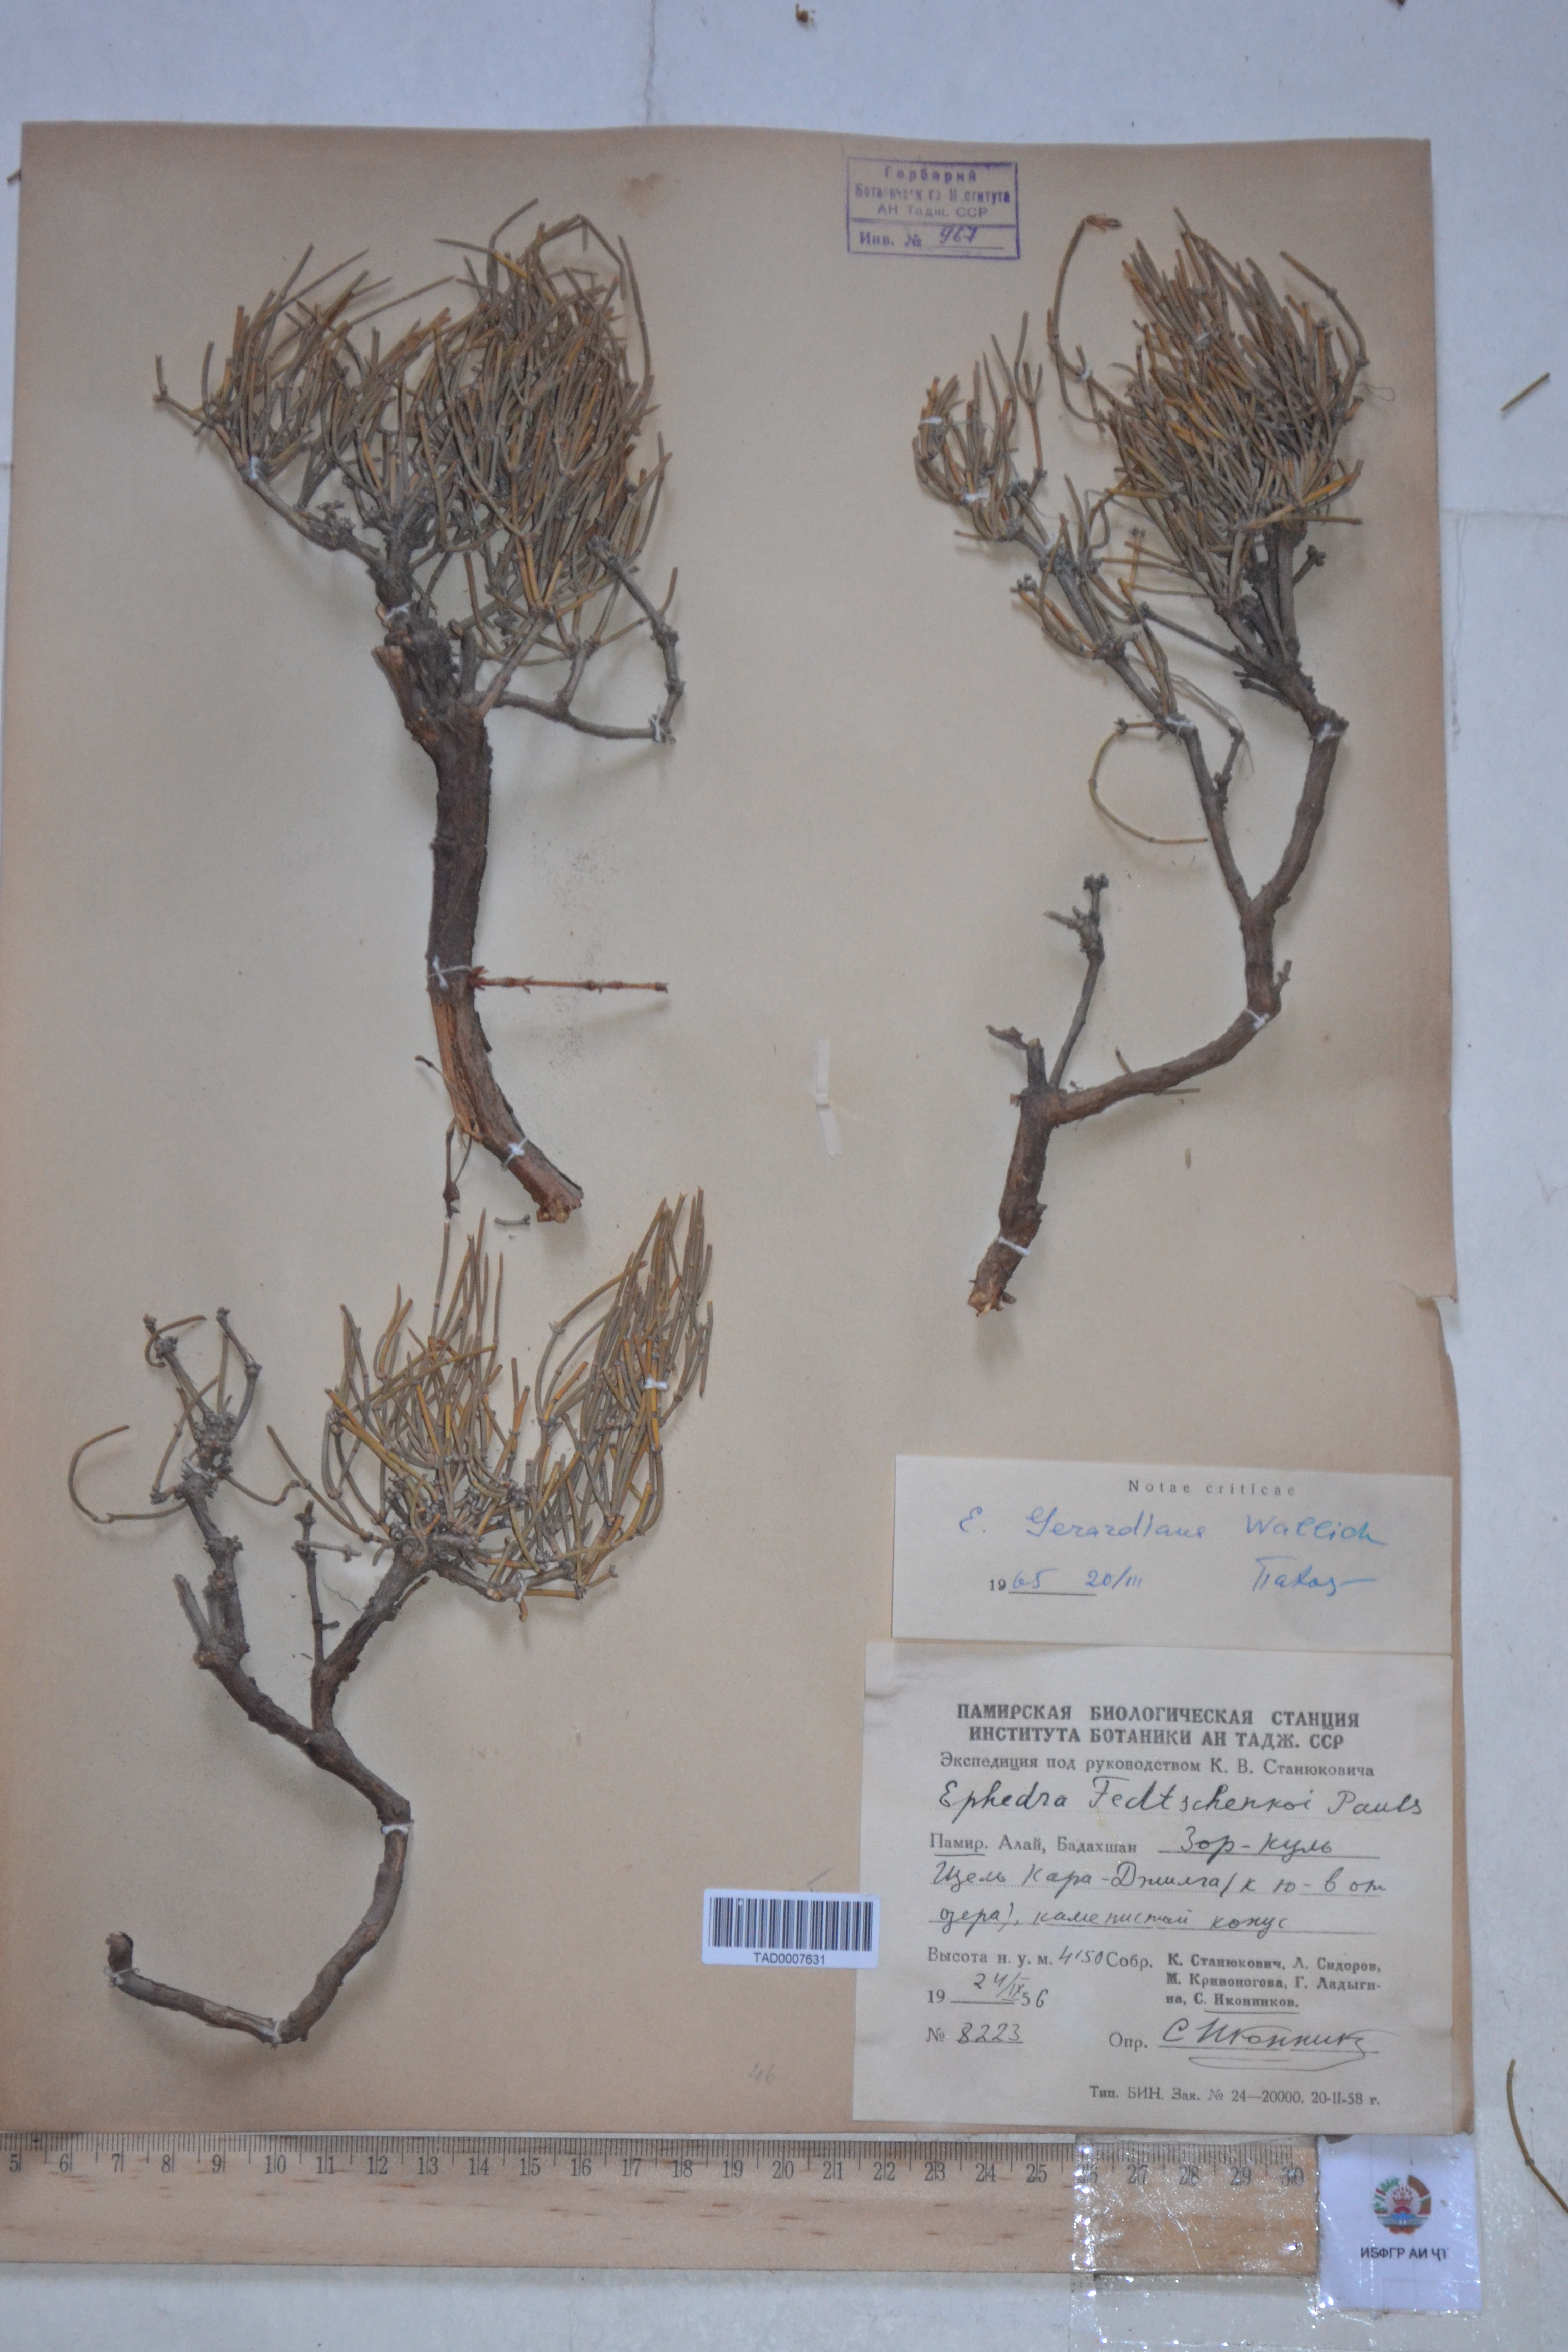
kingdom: Plantae
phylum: Tracheophyta
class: Gnetopsida
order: Ephedrales
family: Ephedraceae
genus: Ephedra
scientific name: Ephedra
